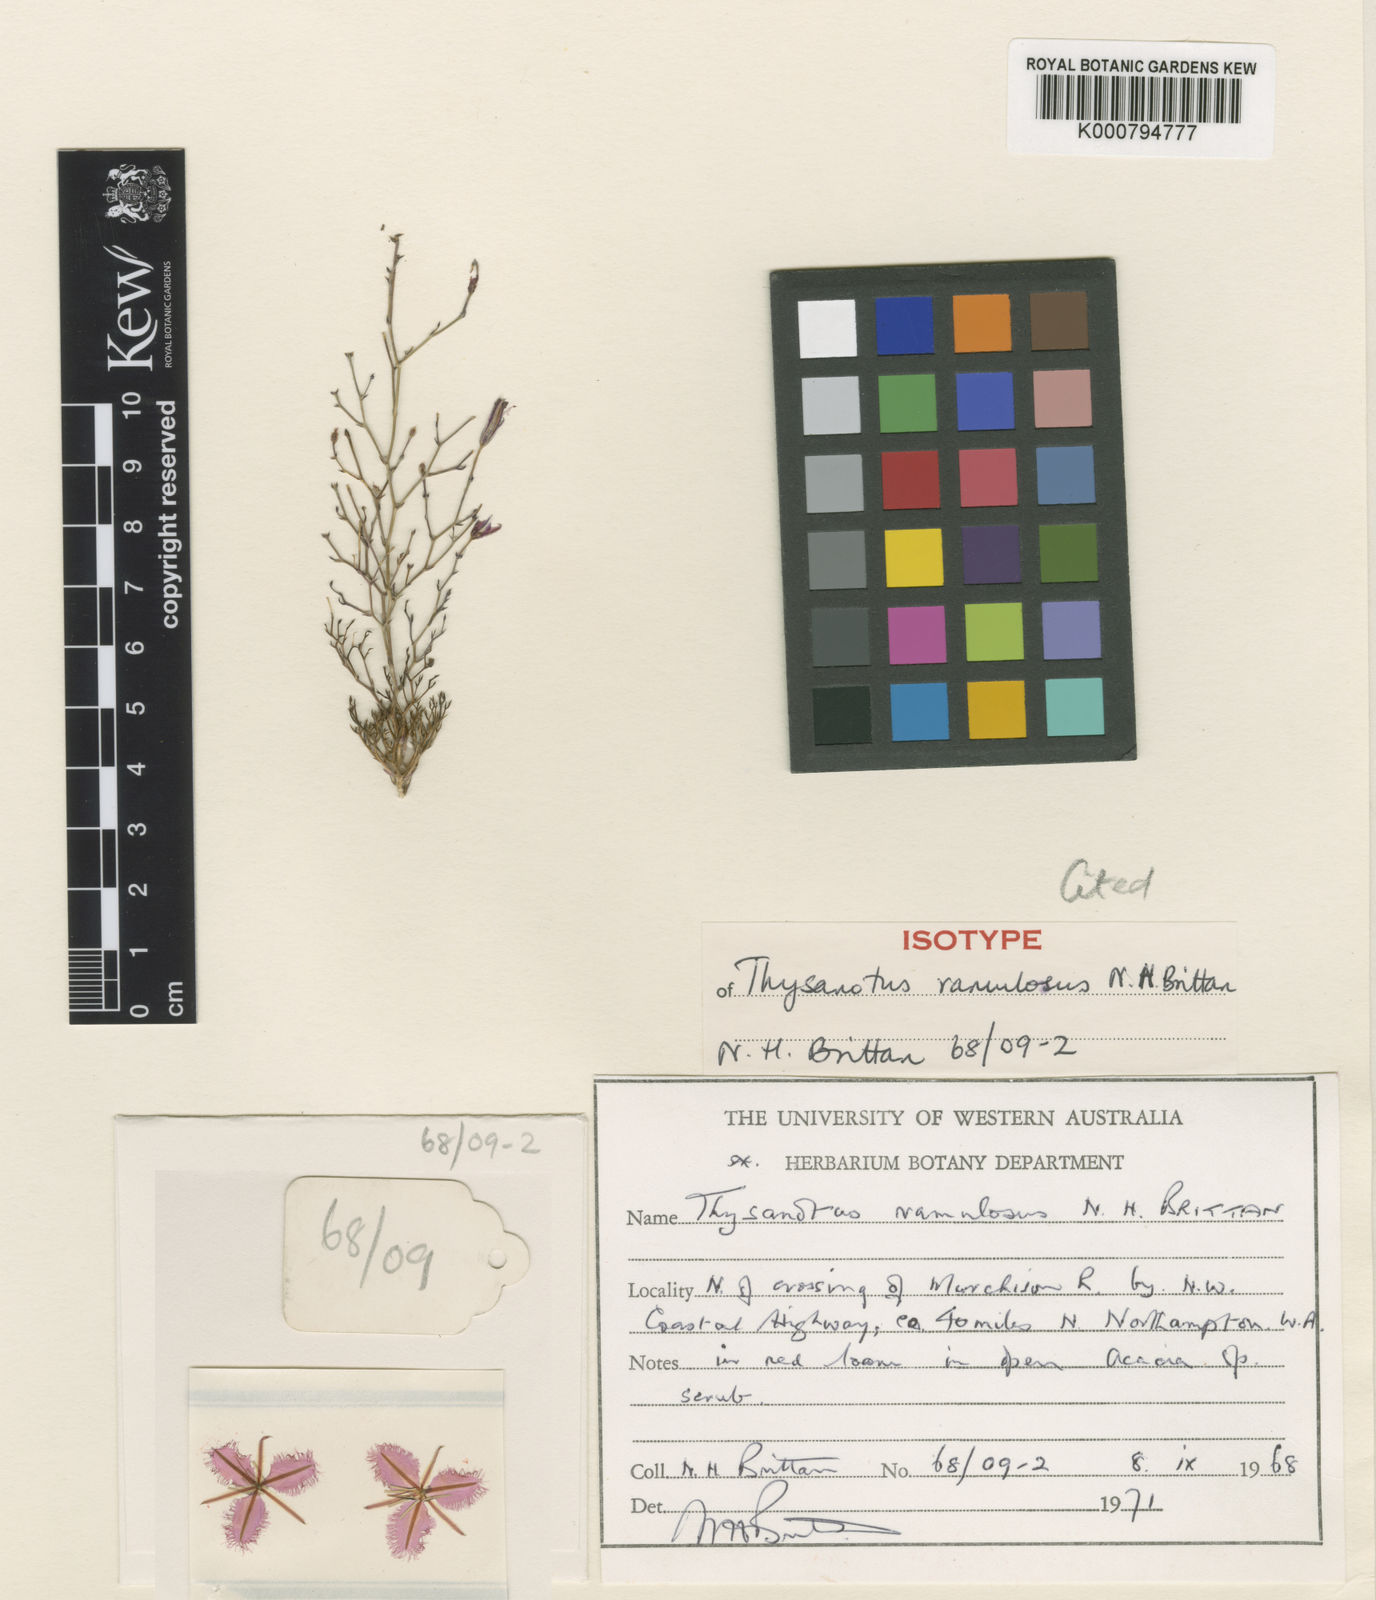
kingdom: Plantae
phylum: Tracheophyta
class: Liliopsida
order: Asparagales
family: Asparagaceae
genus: Thysanotus
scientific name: Thysanotus ramulosus
